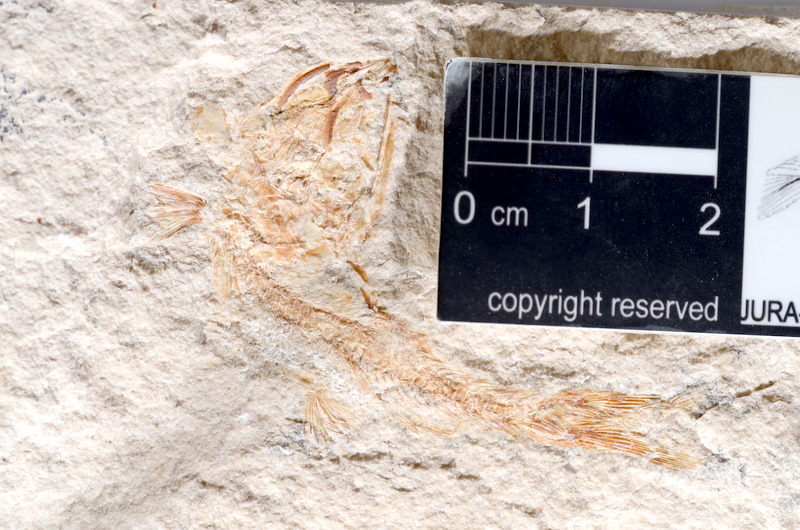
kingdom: Animalia
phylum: Chordata
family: Ascalaboidae
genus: Tharsis
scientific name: Tharsis dubius
